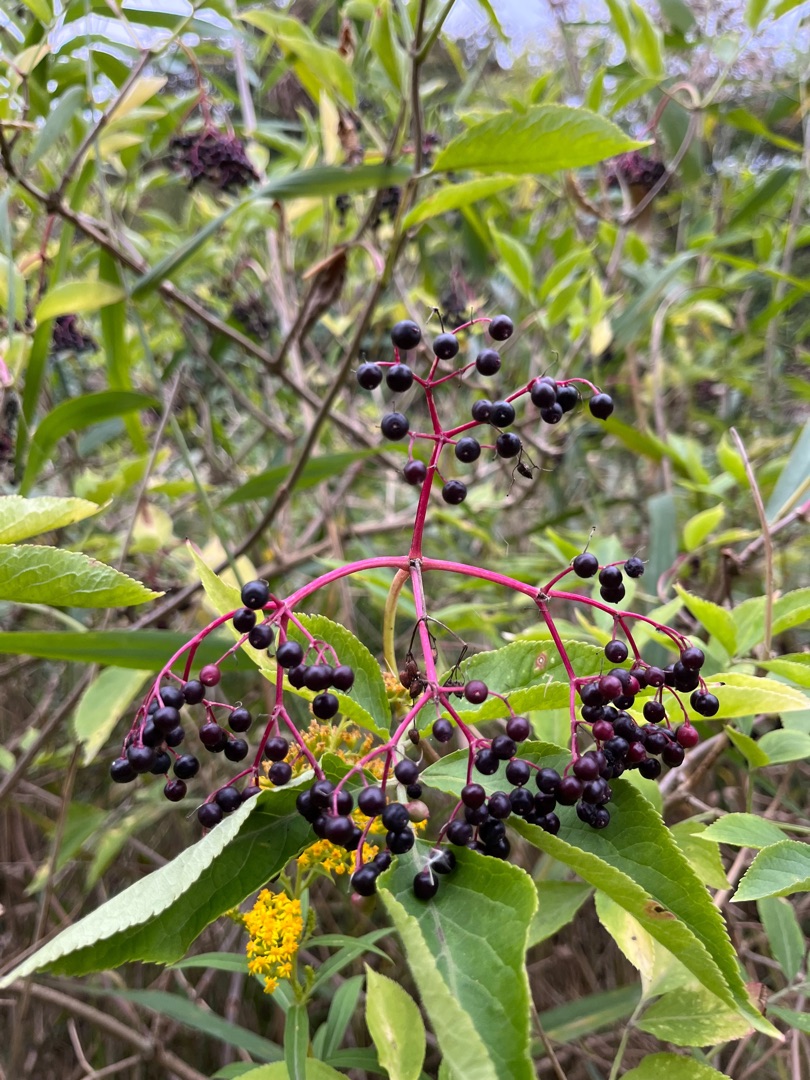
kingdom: Plantae
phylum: Tracheophyta
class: Magnoliopsida
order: Dipsacales
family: Viburnaceae
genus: Sambucus
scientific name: Sambucus nigra
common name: Almindelig hyld
